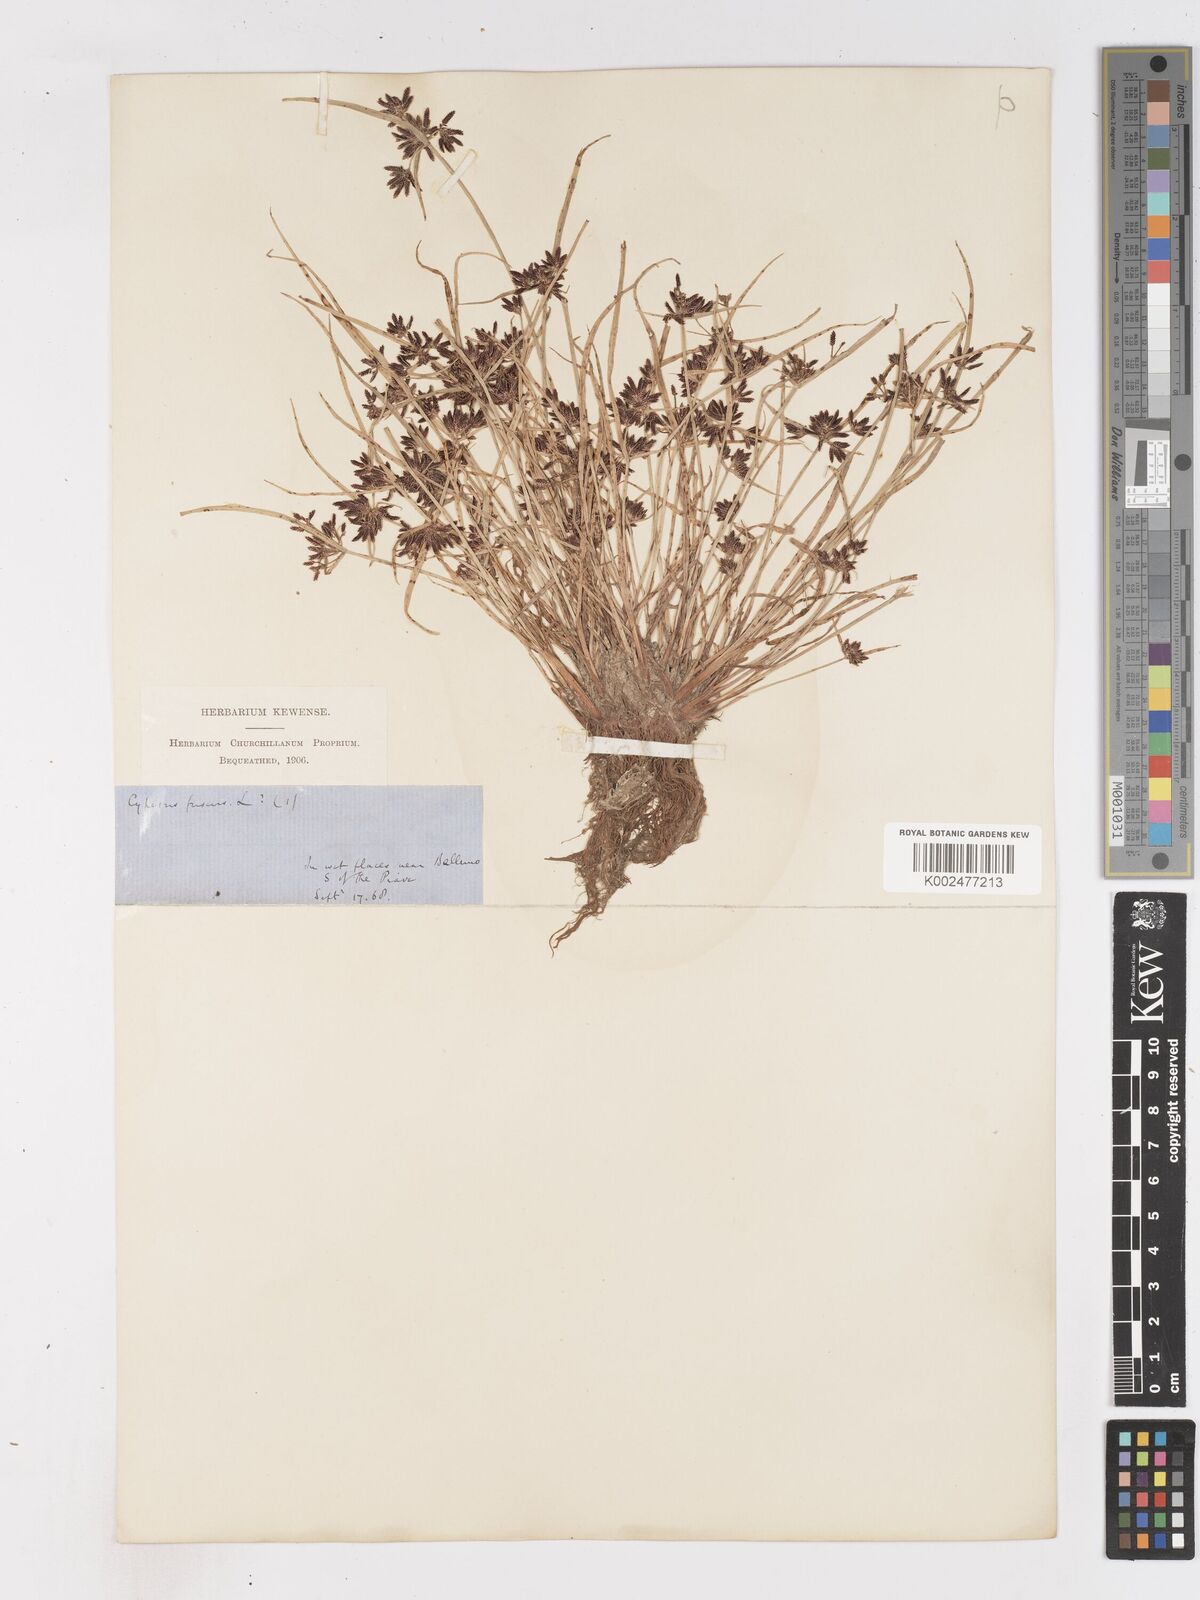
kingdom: Plantae
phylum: Tracheophyta
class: Liliopsida
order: Poales
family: Cyperaceae
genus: Cyperus
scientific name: Cyperus fuscus
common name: Brown galingale
